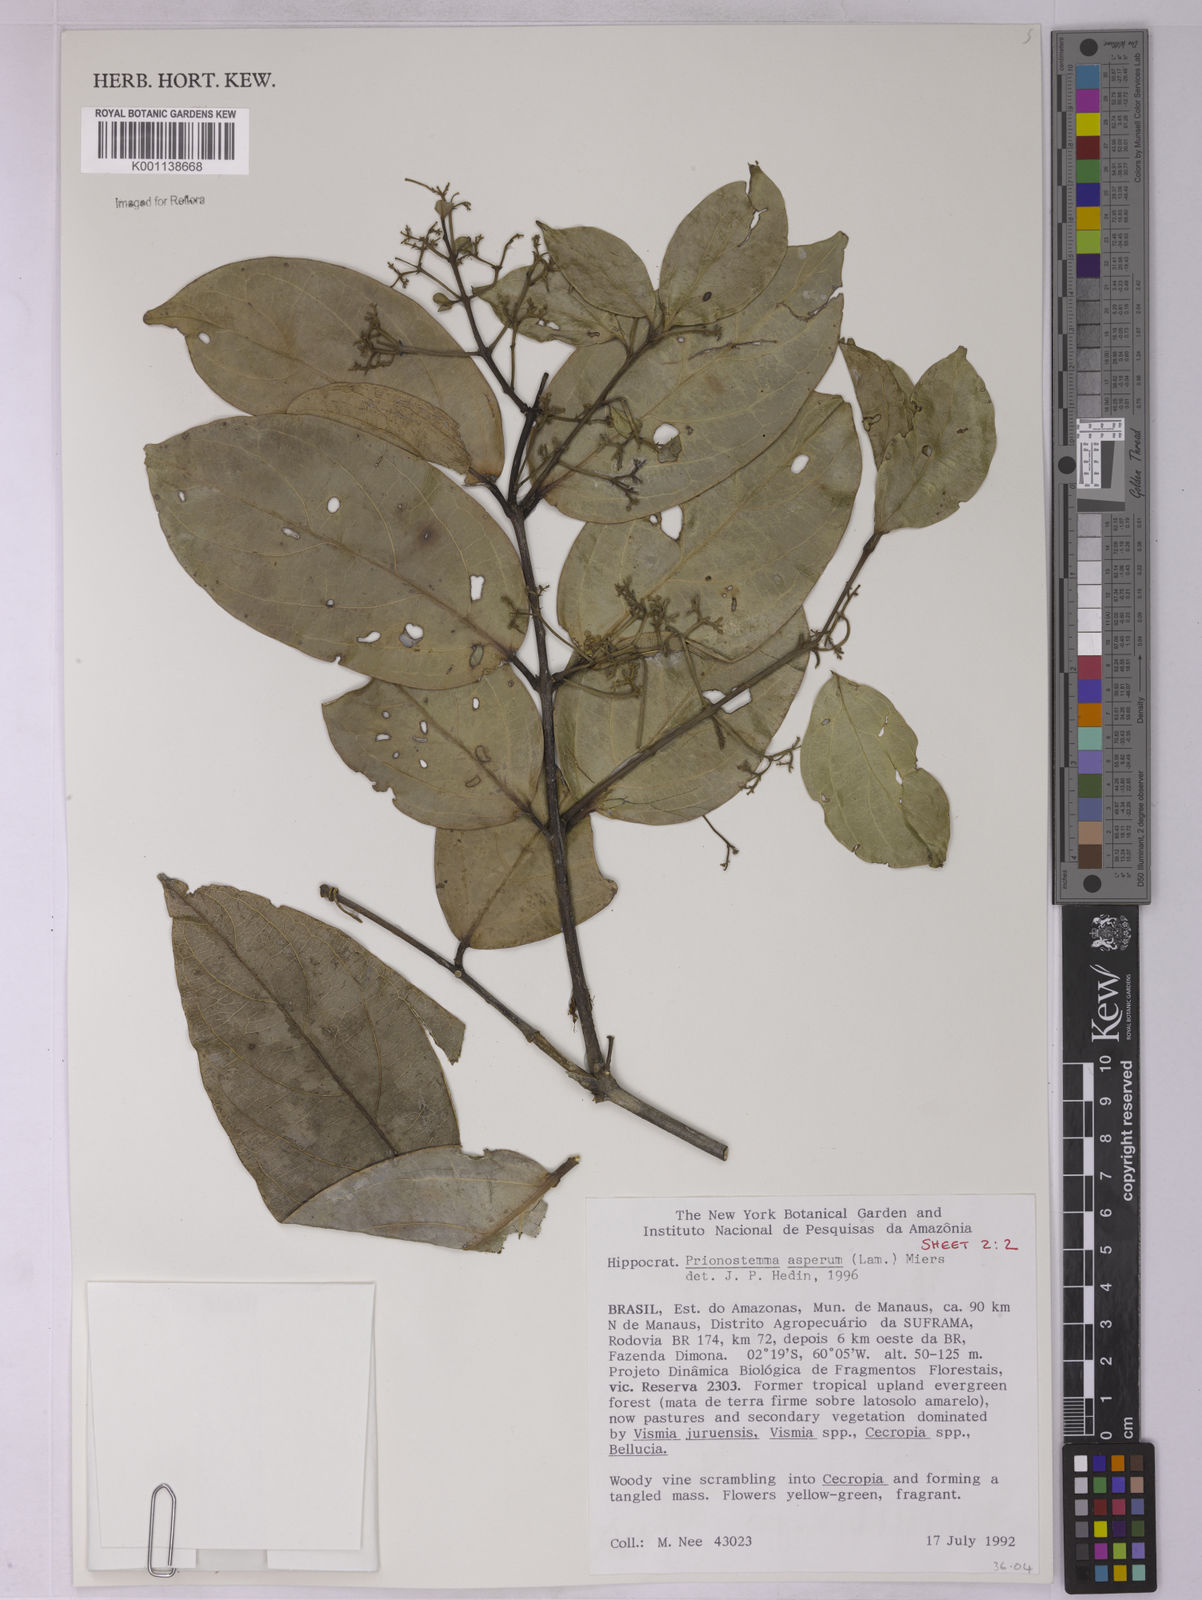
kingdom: Plantae
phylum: Tracheophyta
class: Magnoliopsida
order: Celastrales
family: Celastraceae
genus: Prionostemma
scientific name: Prionostemma aspera
